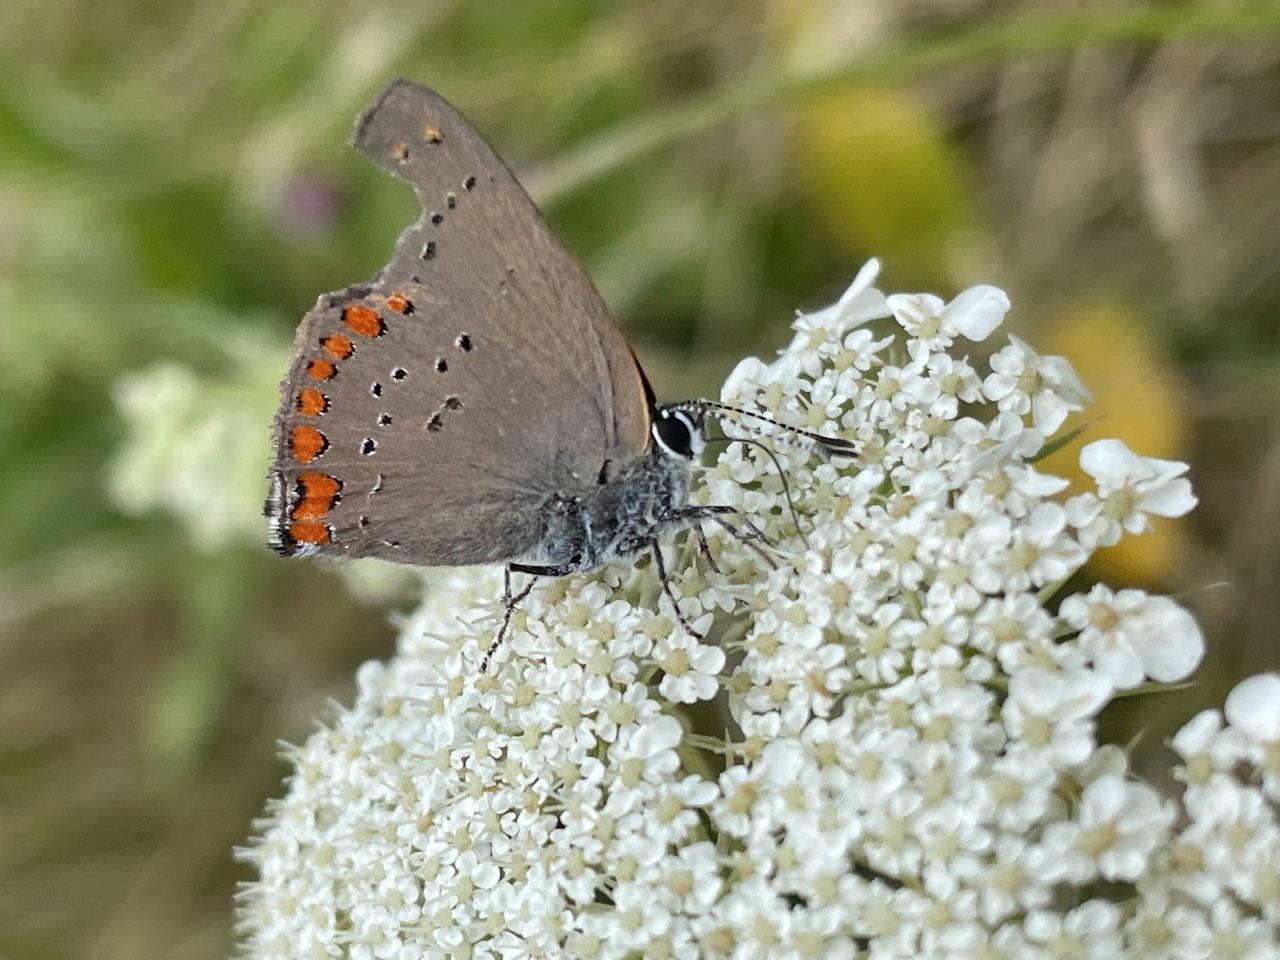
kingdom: Animalia
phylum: Arthropoda
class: Insecta
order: Lepidoptera
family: Lycaenidae
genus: Harkenclenus
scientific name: Harkenclenus titus
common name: Coral Hairstreak
